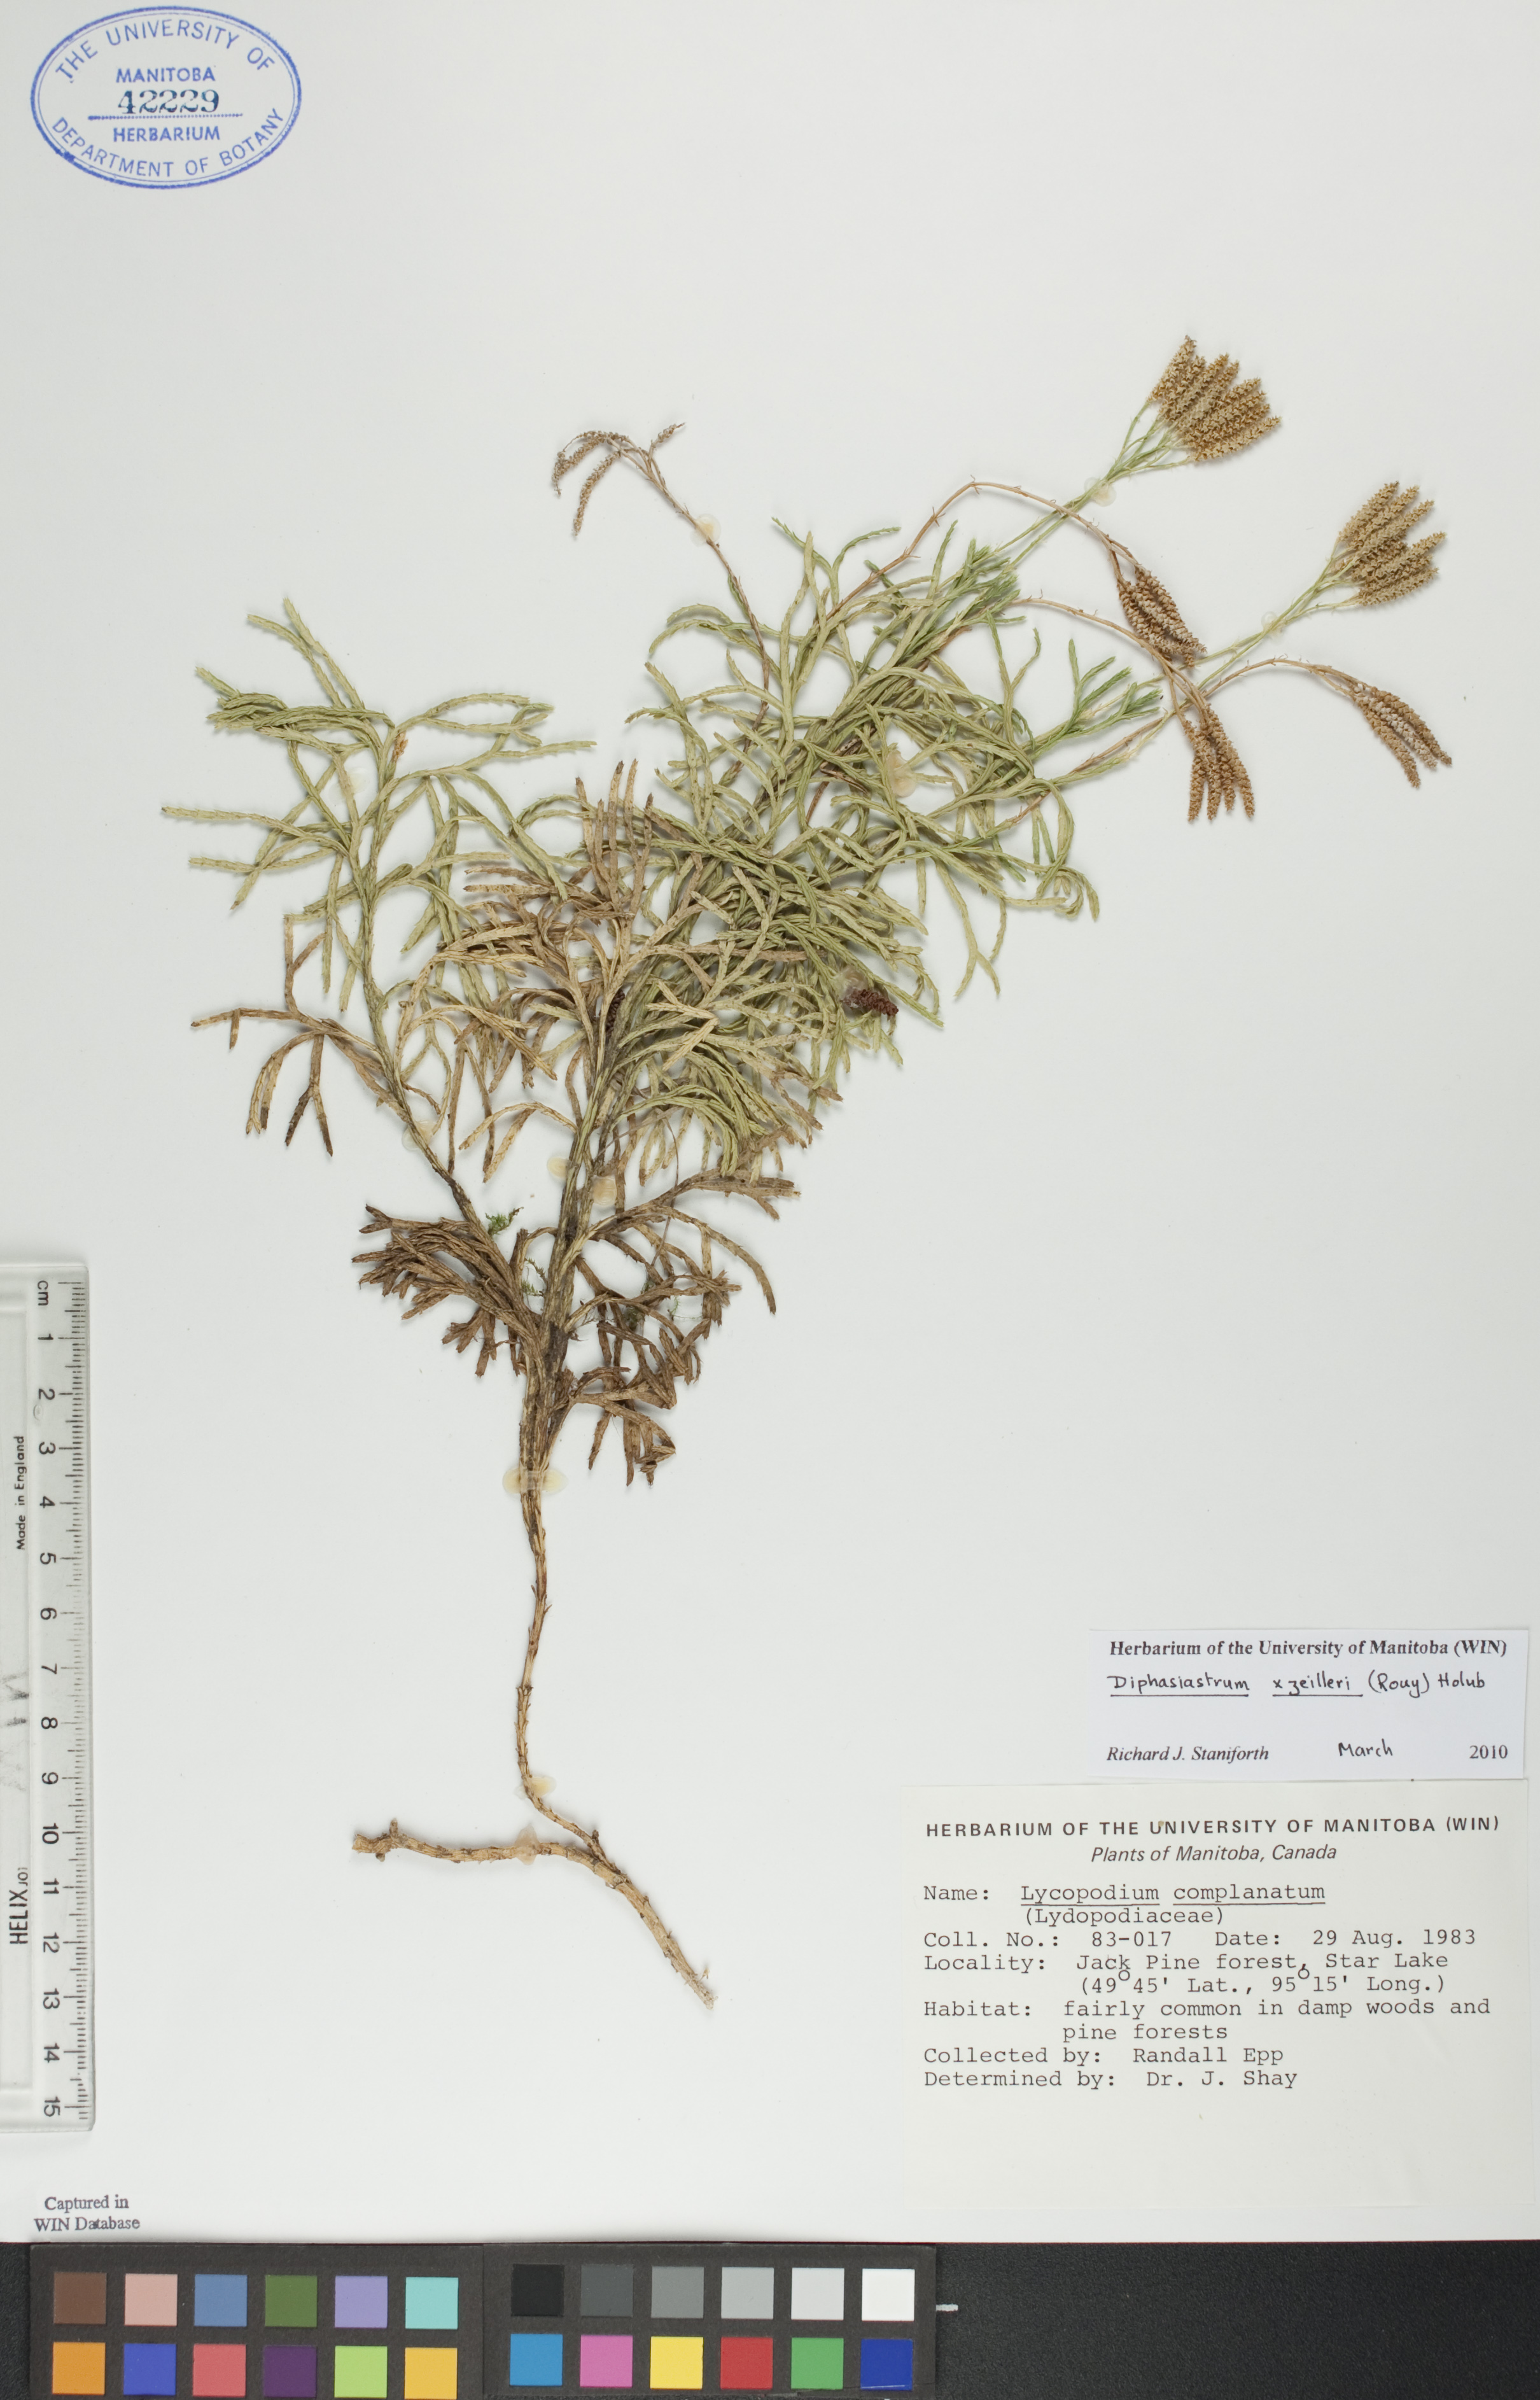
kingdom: Plantae
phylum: Tracheophyta
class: Lycopodiopsida
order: Lycopodiales
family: Lycopodiaceae
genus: Diphasiastrum
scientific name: Diphasiastrum zeilleri
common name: Zeiller's clubmoss
